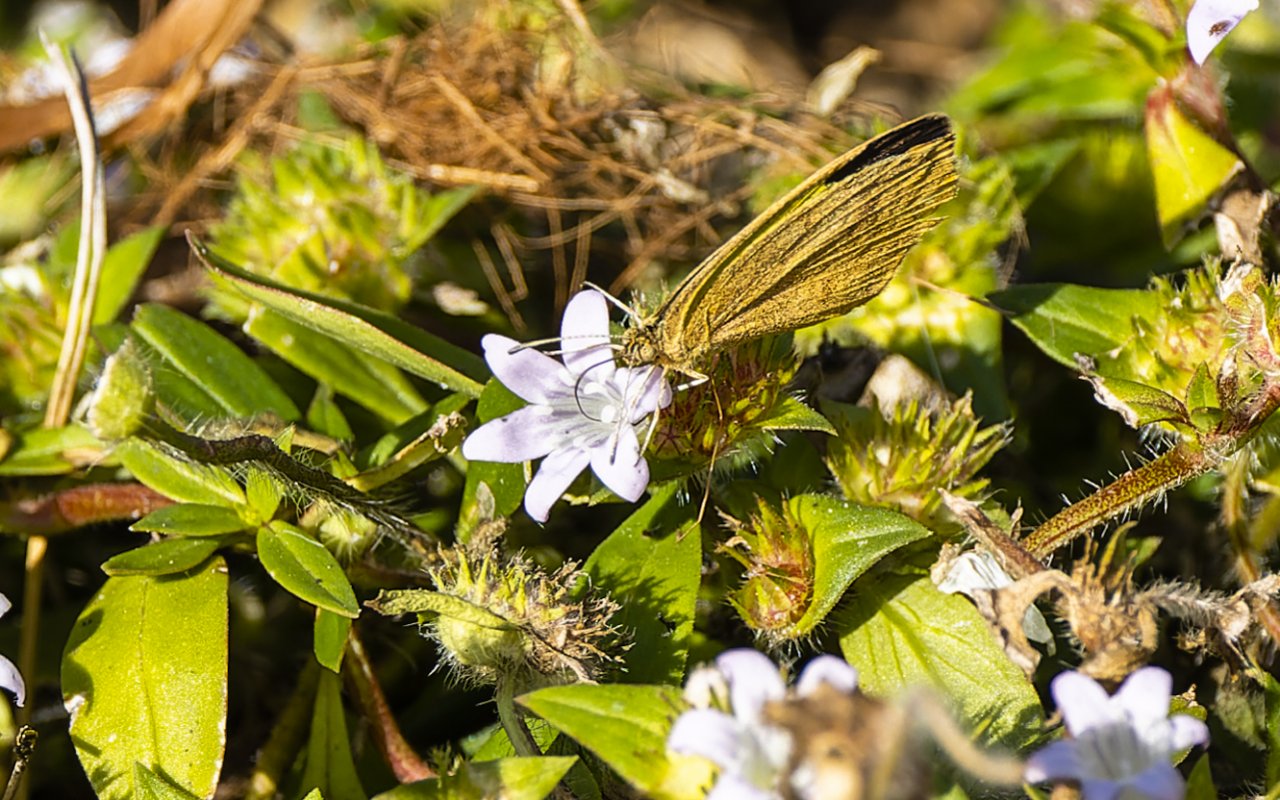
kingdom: Animalia
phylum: Arthropoda
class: Insecta
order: Lepidoptera
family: Pieridae
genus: Eurema
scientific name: Eurema daira
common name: Barred Yellow
